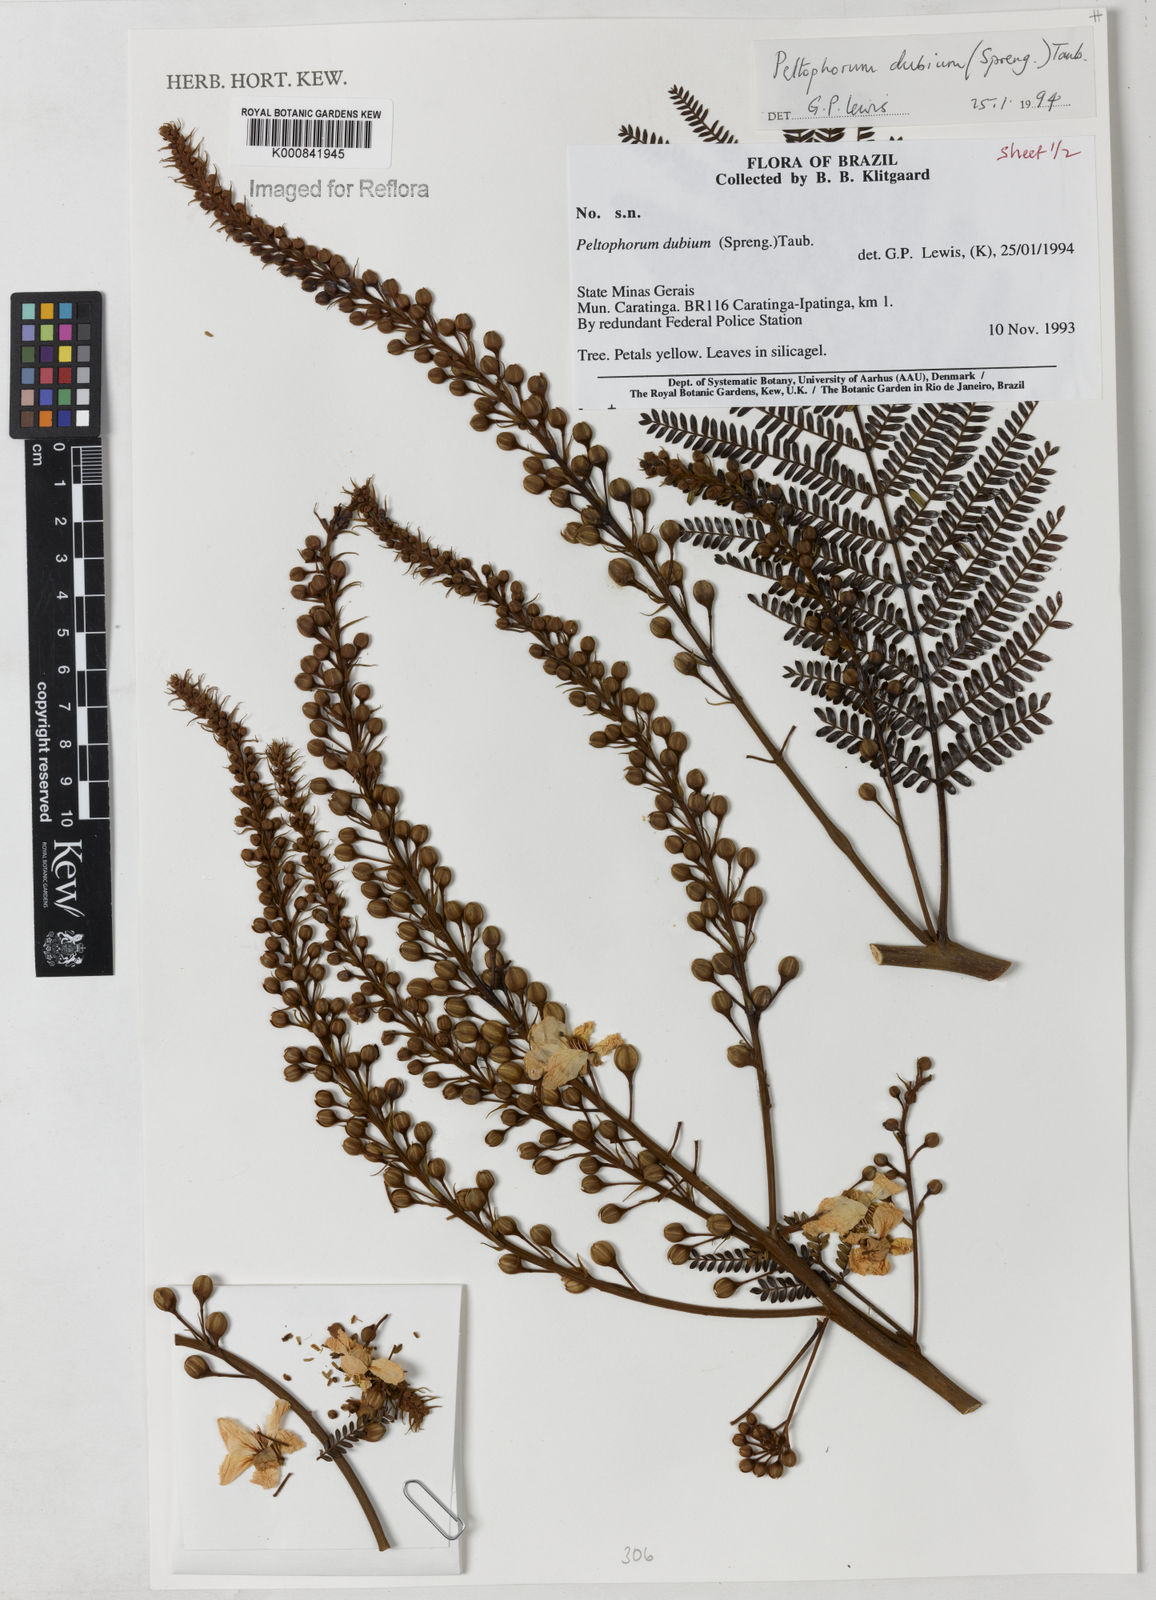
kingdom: Plantae
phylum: Tracheophyta
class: Magnoliopsida
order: Fabales
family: Fabaceae
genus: Peltophorum
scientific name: Peltophorum dubium
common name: Horsebush
